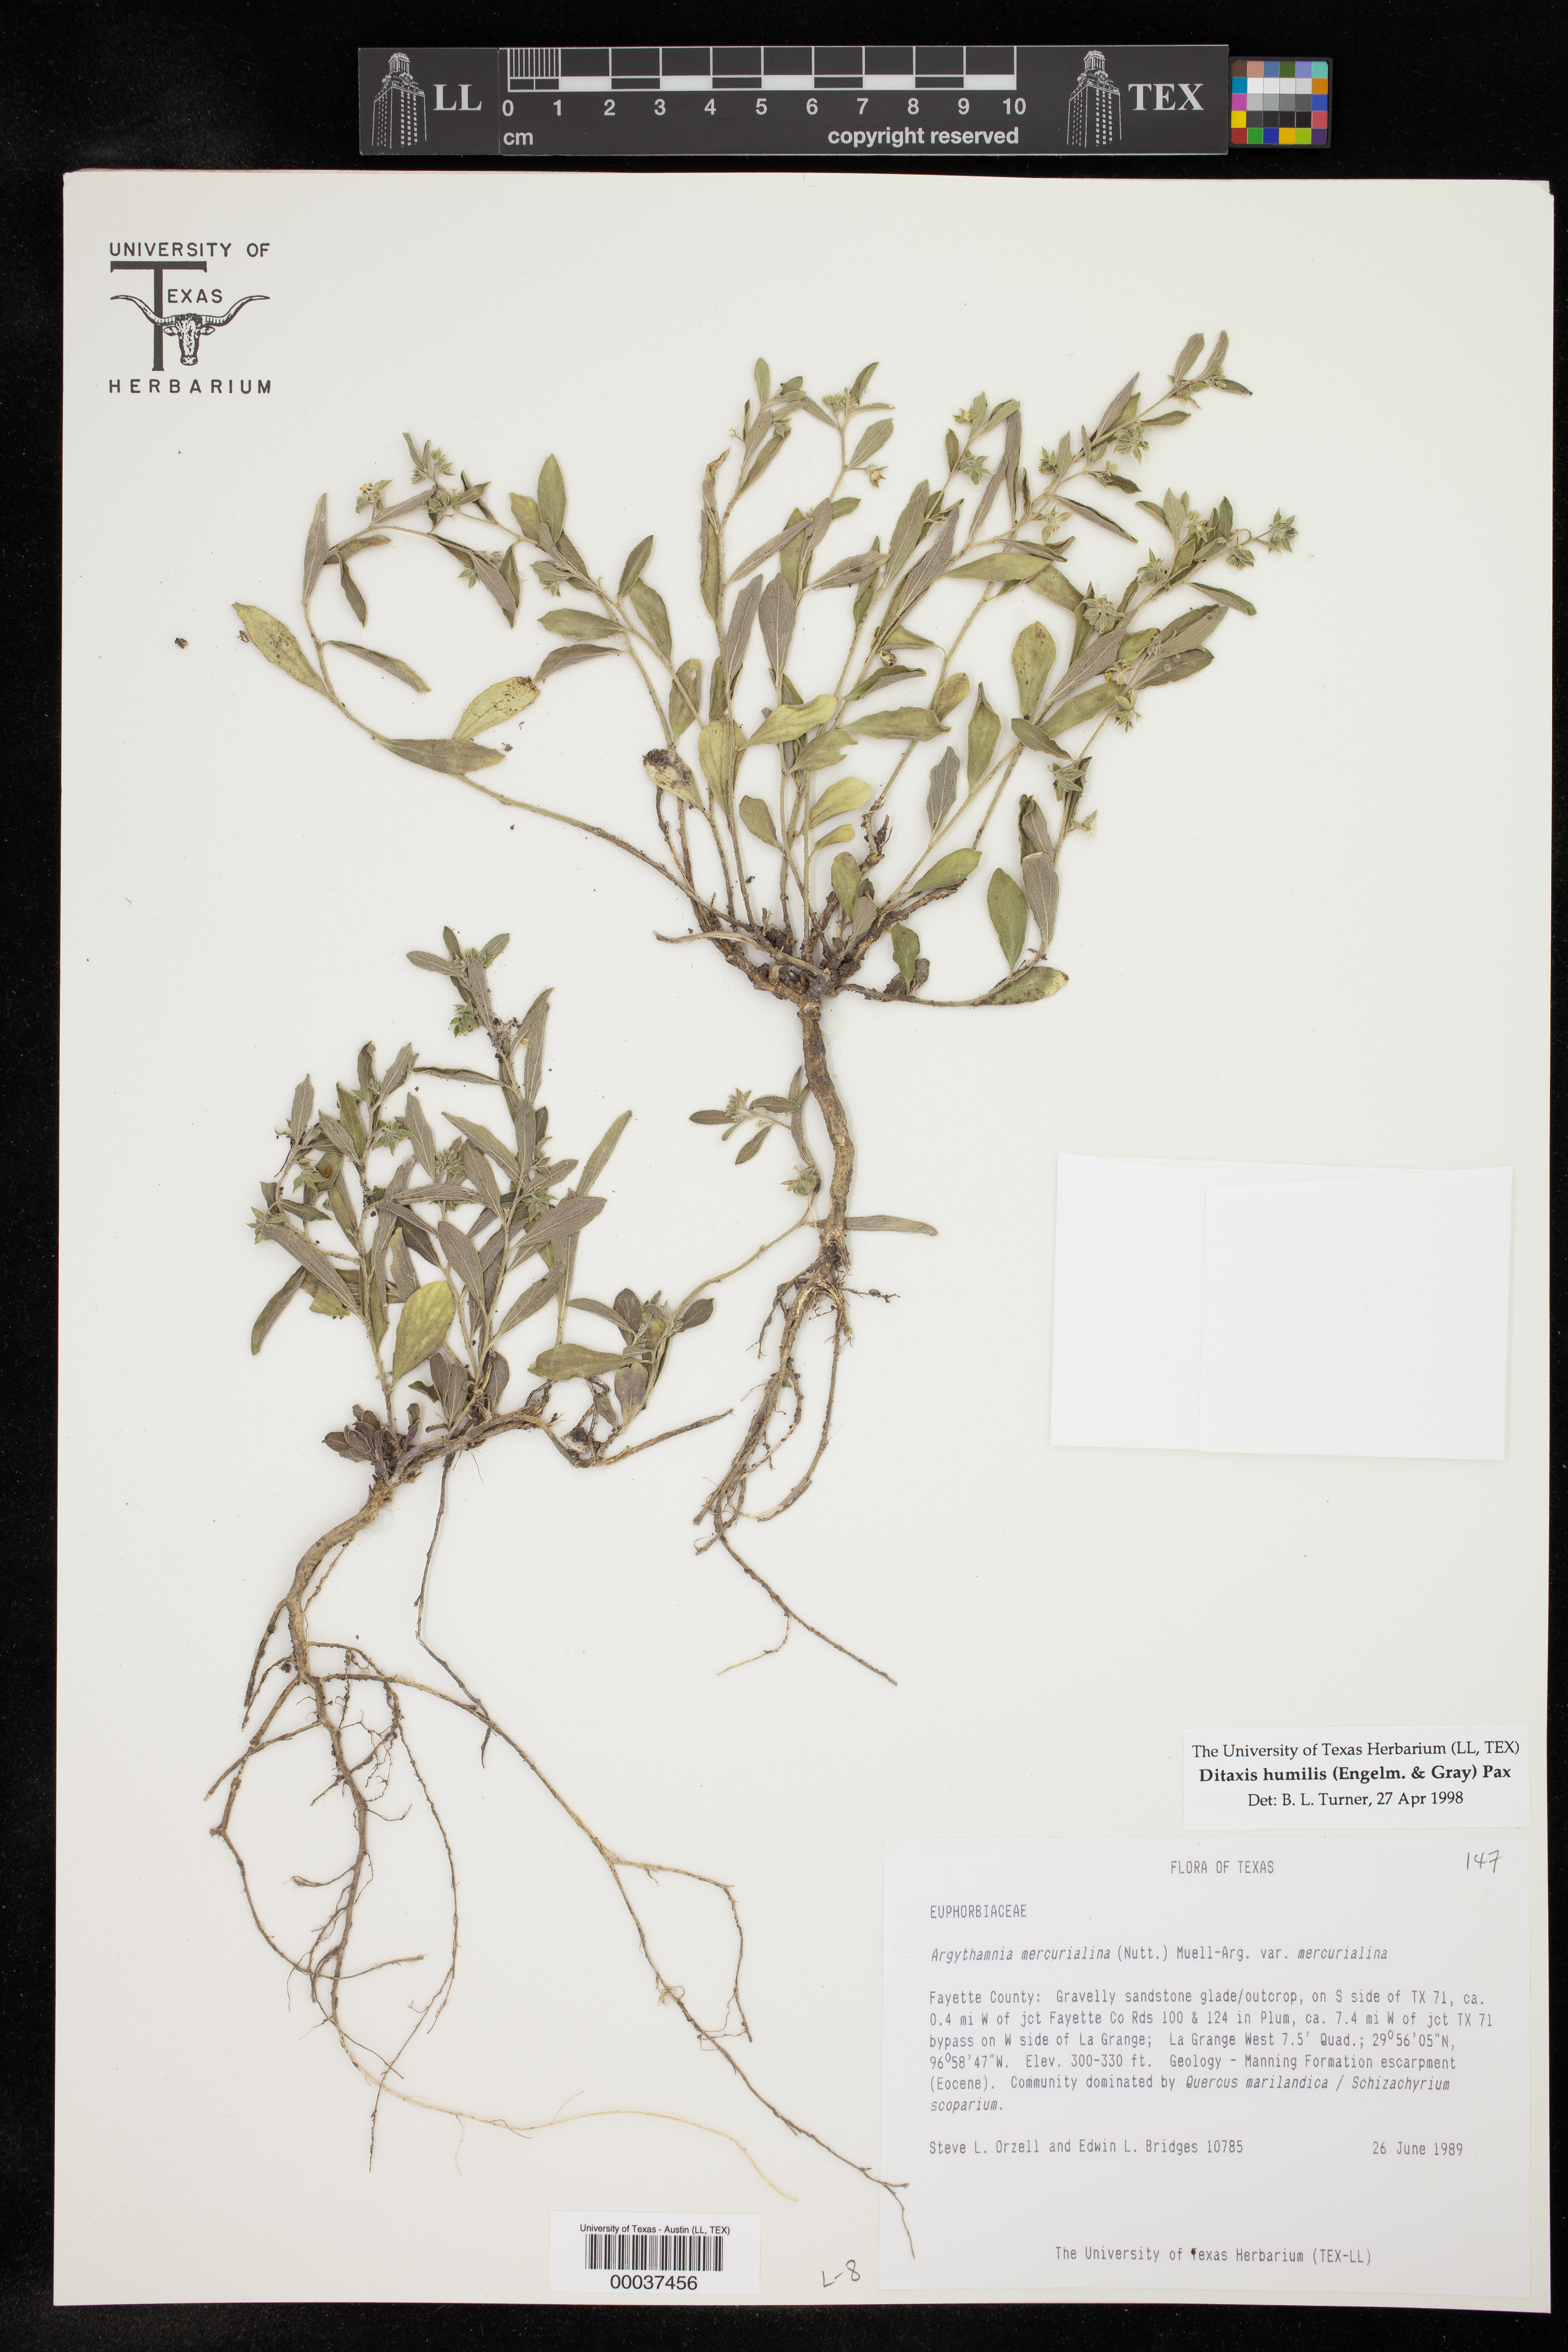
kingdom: Plantae
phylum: Tracheophyta
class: Magnoliopsida
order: Malpighiales
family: Euphorbiaceae
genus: Ditaxis
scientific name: Ditaxis humilis
